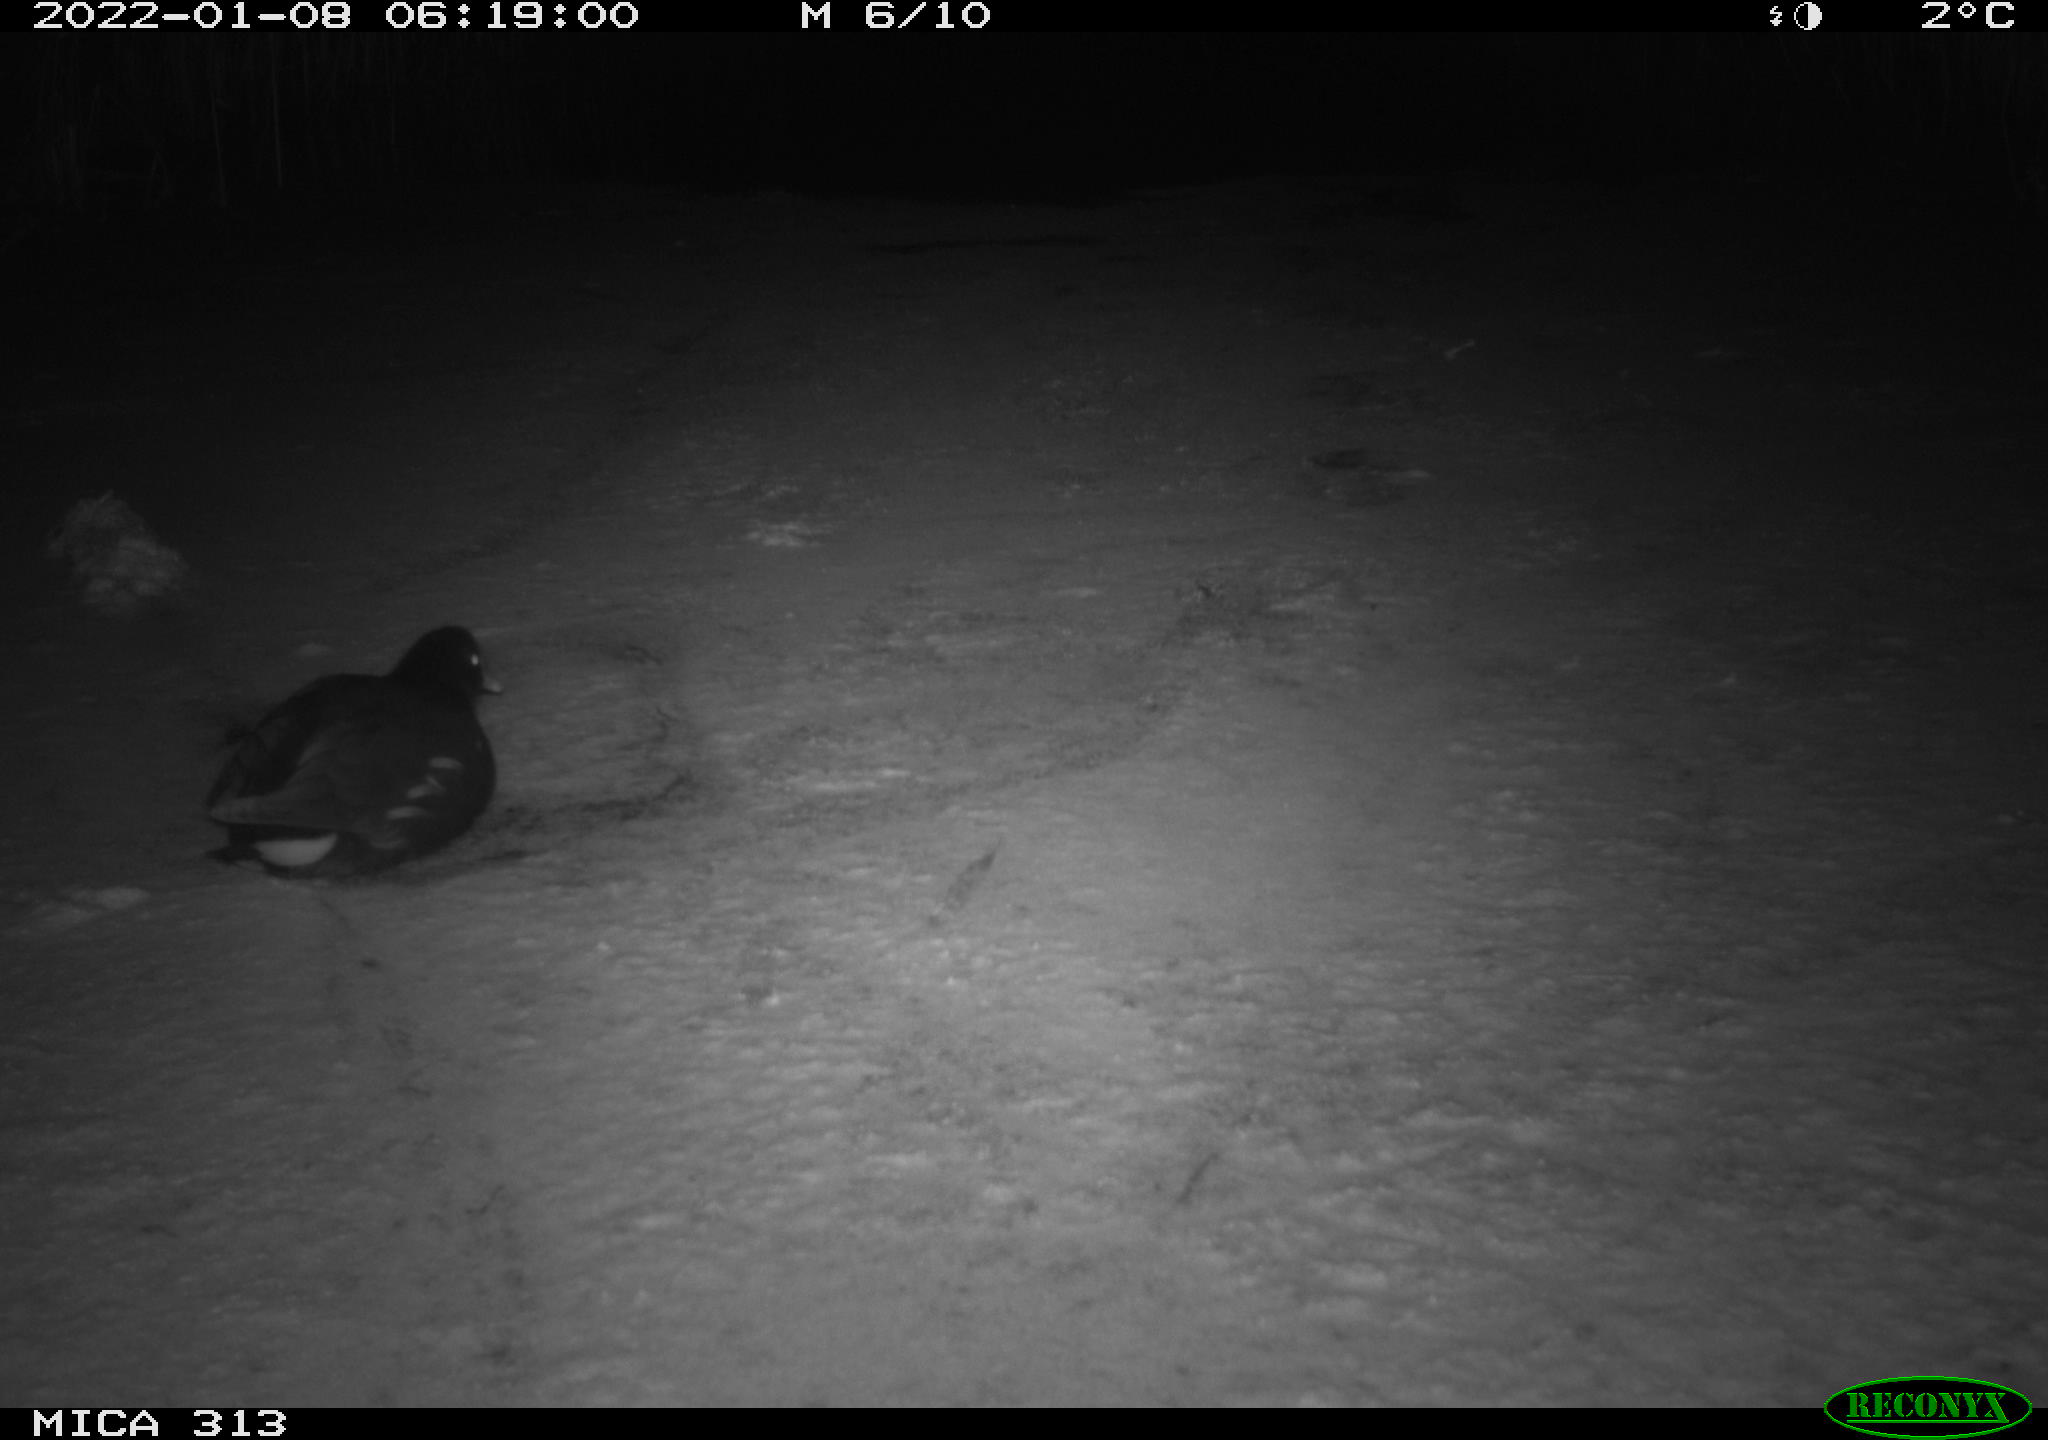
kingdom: Animalia
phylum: Chordata
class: Aves
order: Gruiformes
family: Rallidae
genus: Fulica
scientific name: Fulica atra
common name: Eurasian coot
